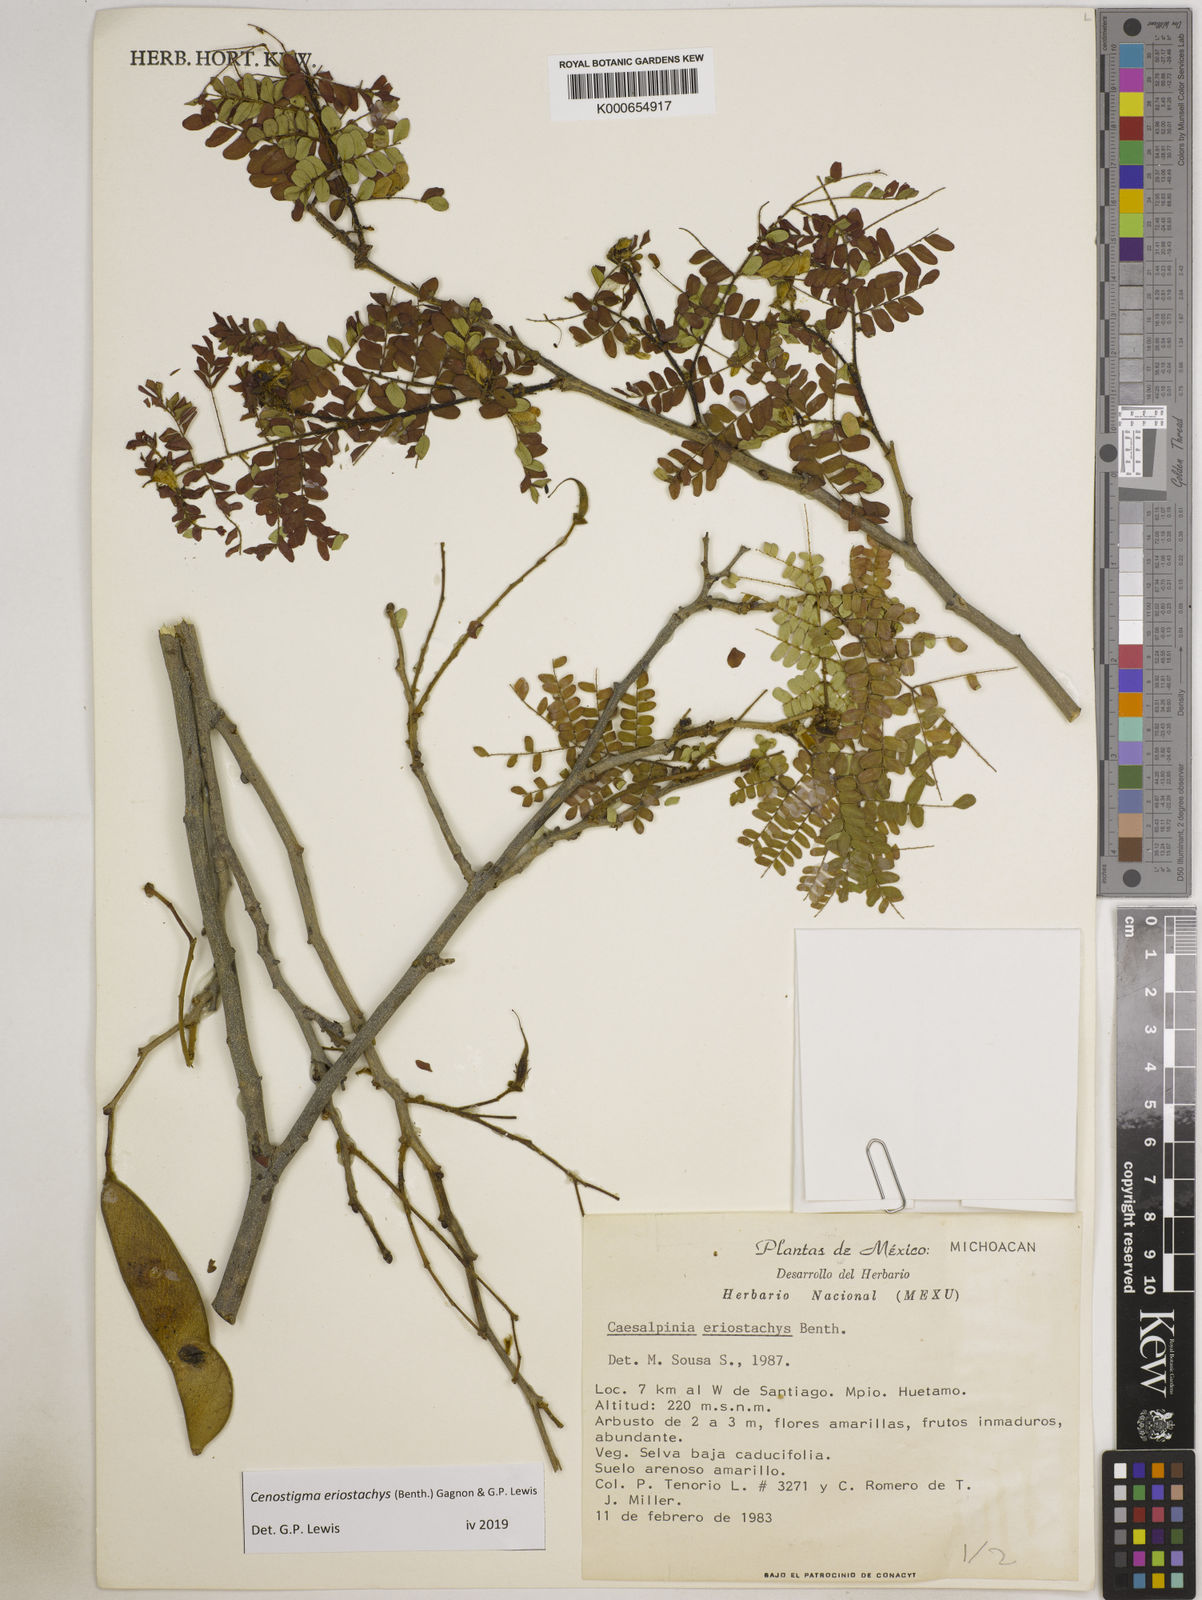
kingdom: Plantae
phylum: Tracheophyta
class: Magnoliopsida
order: Fabales
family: Fabaceae
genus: Cenostigma
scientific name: Cenostigma eriostachys
